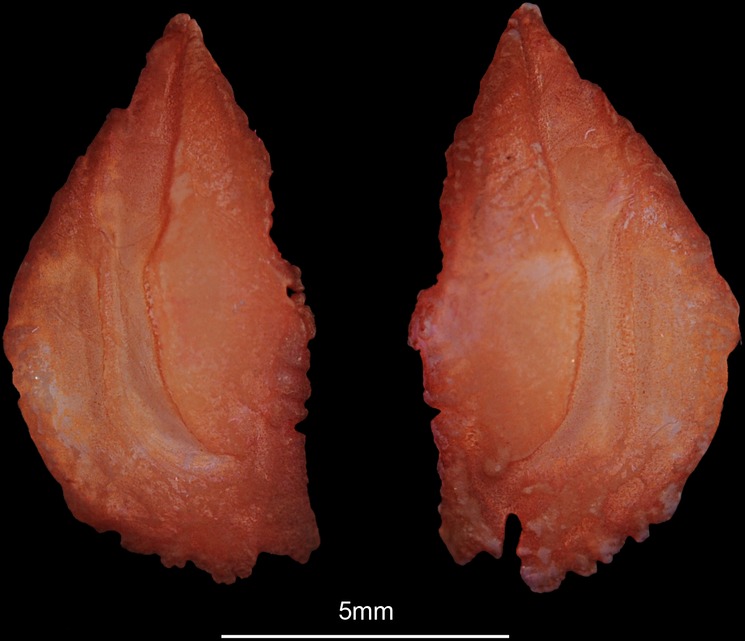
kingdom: Animalia
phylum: Chordata
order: Perciformes
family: Sparidae
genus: Sparus
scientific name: Sparus aurata
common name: Gilthead
